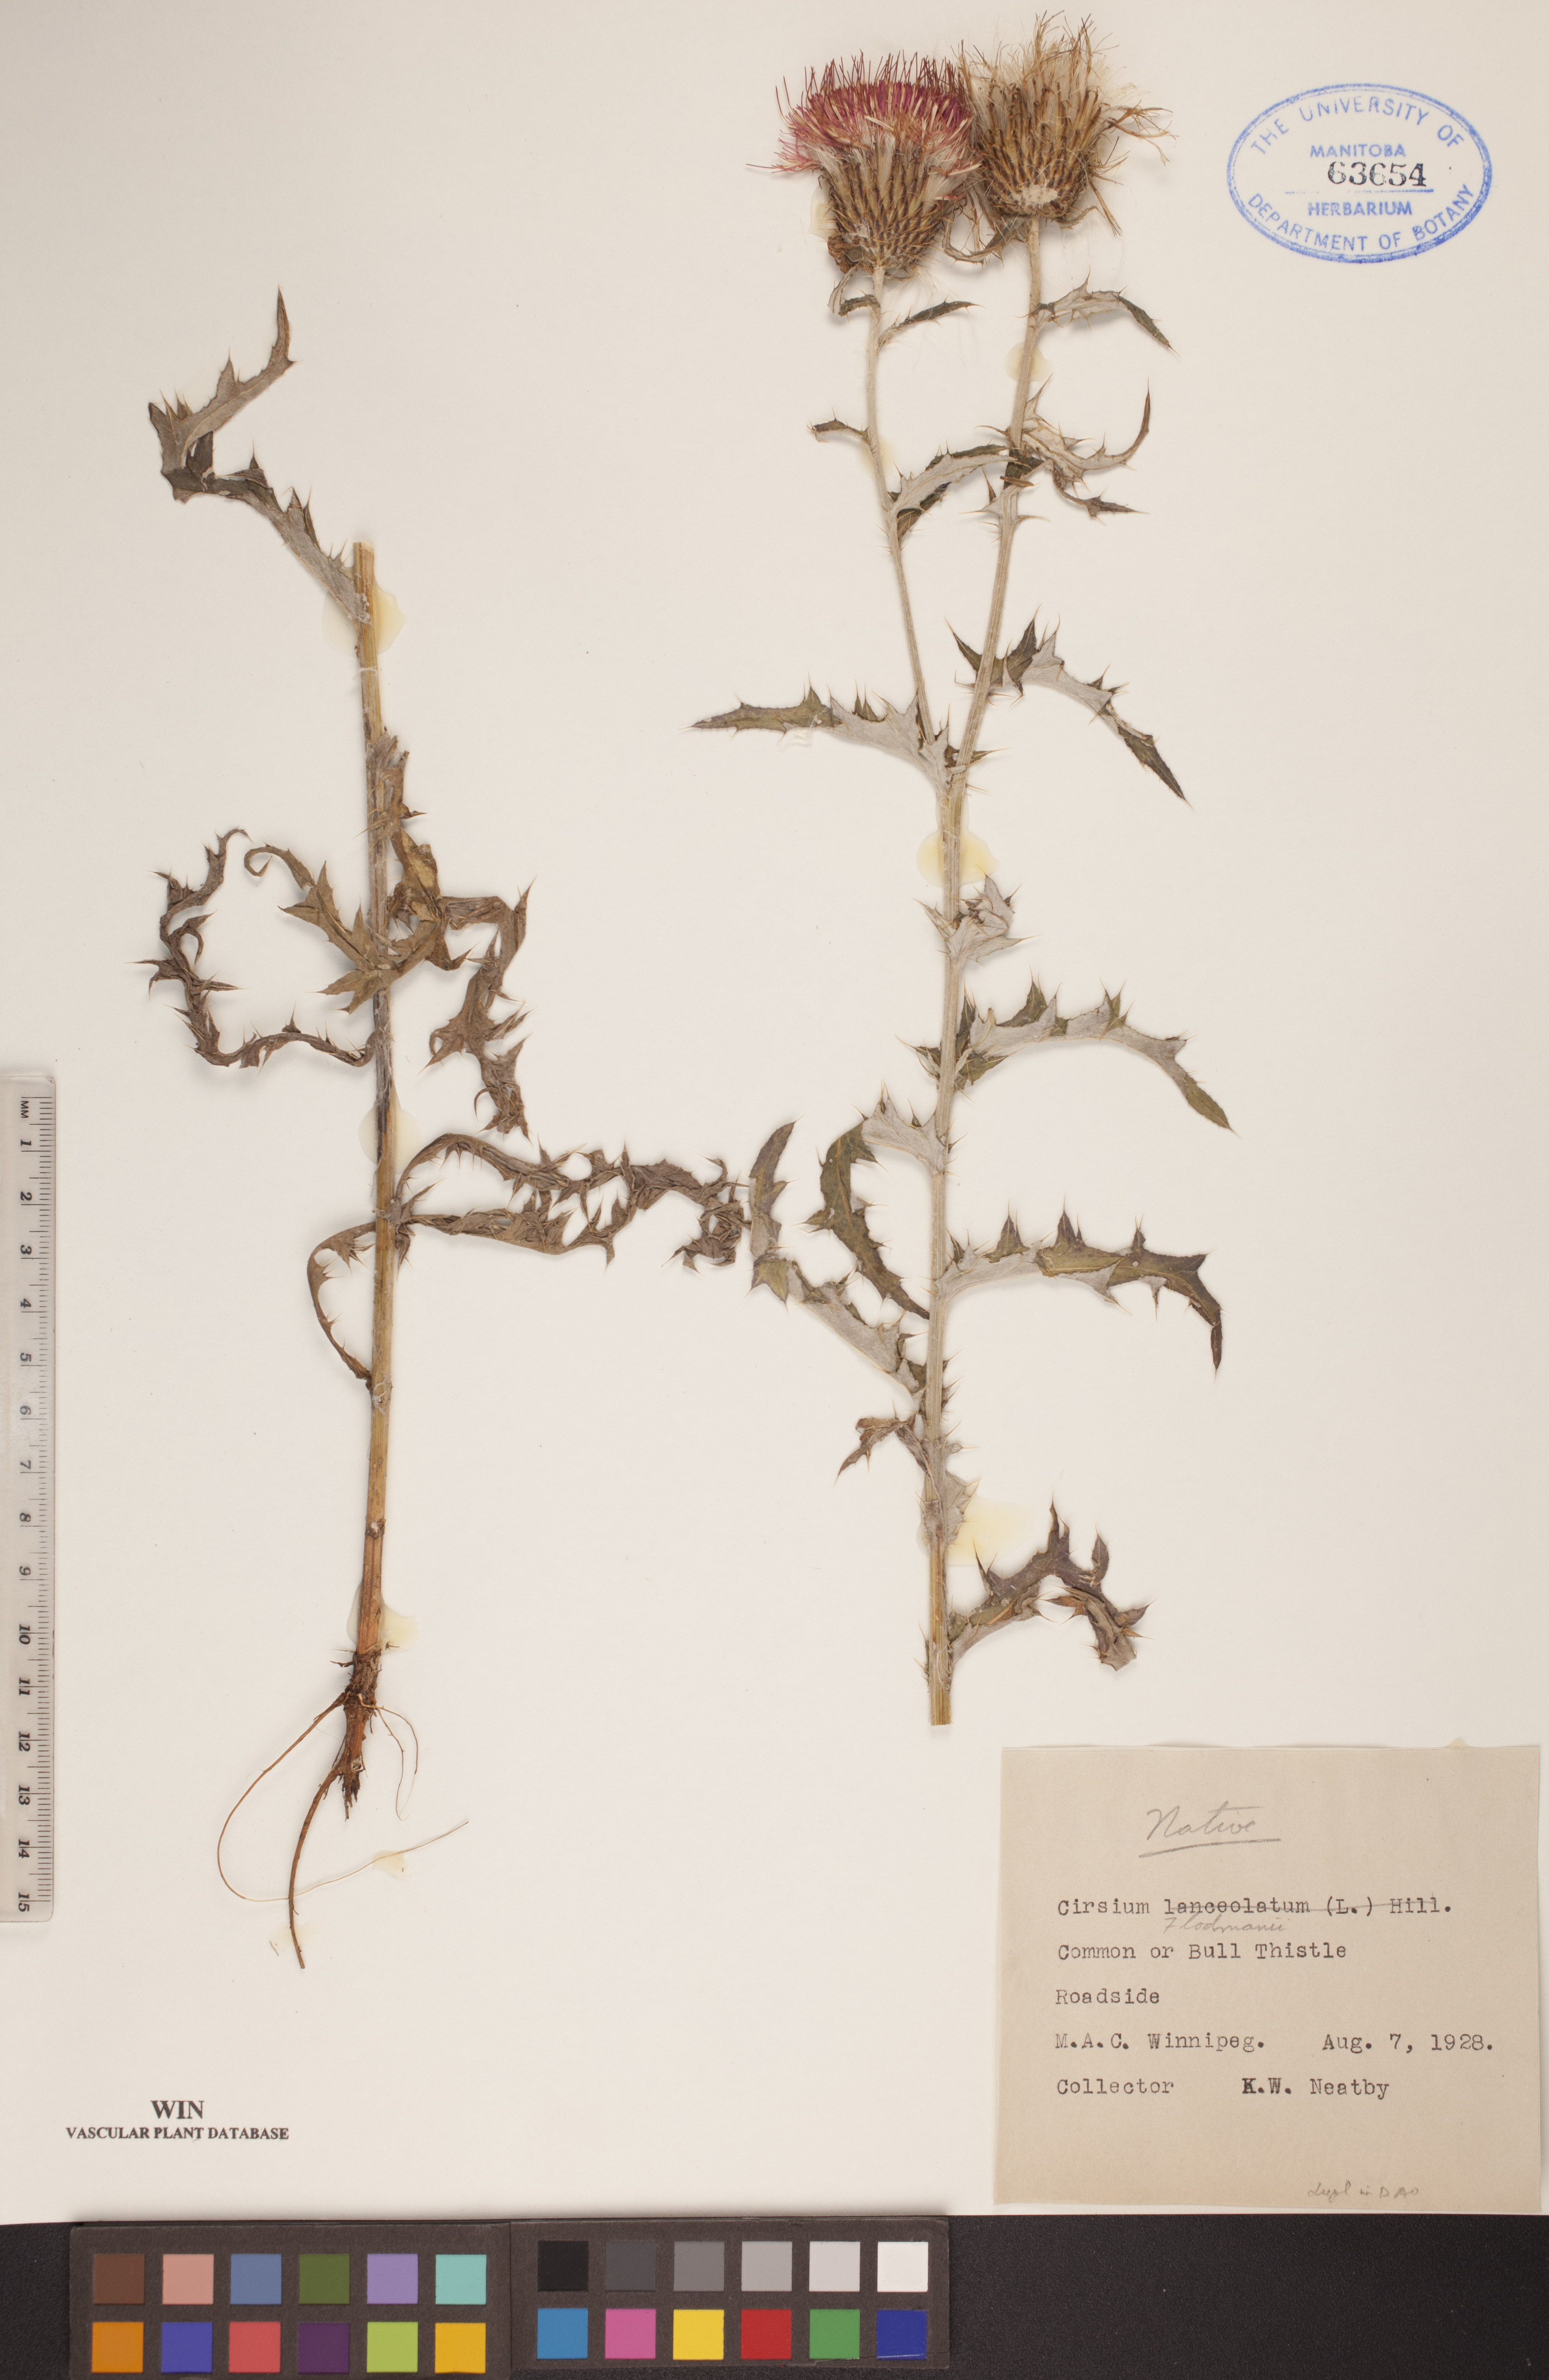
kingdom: Plantae
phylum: Tracheophyta
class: Magnoliopsida
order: Asterales
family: Asteraceae
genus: Cirsium
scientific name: Cirsium flodmanii
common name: Flodman's thistle
